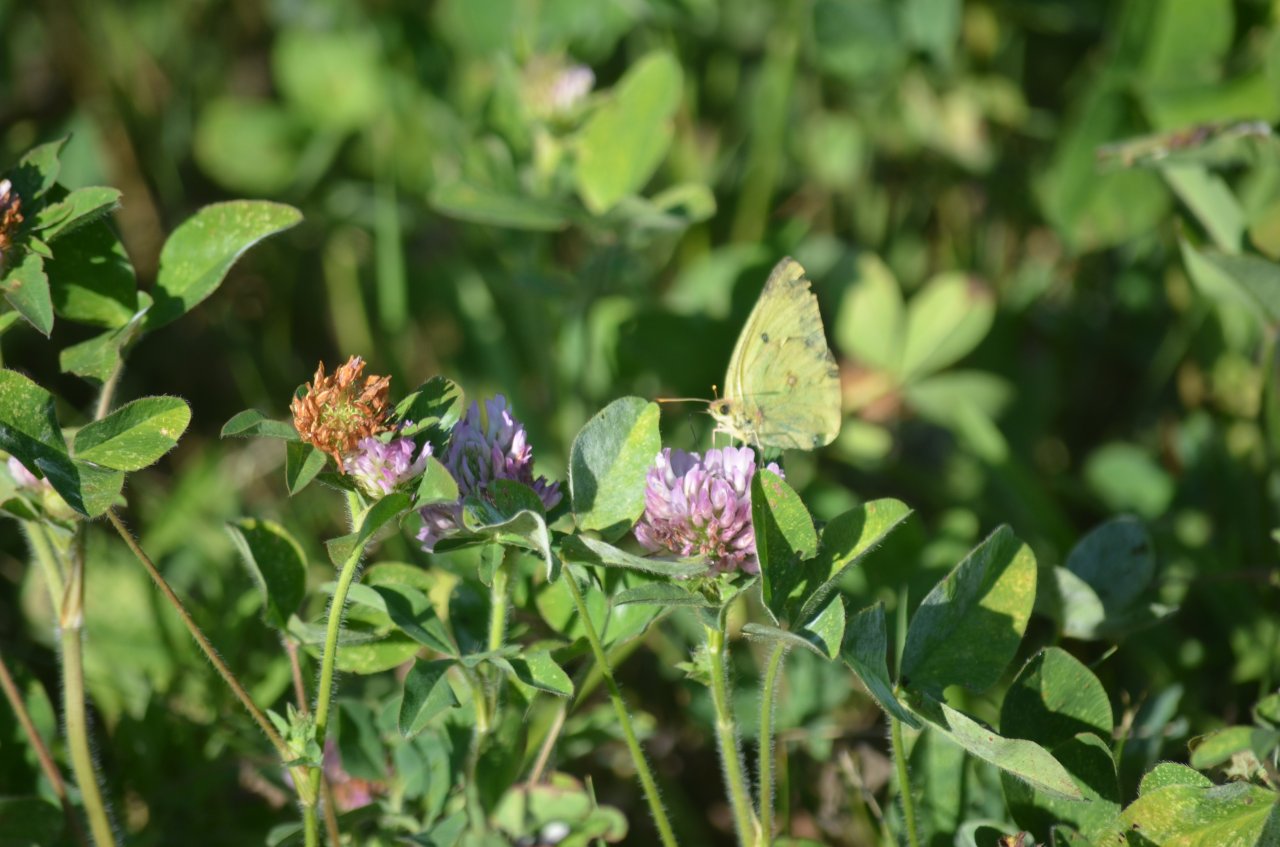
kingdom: Animalia
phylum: Arthropoda
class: Insecta
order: Lepidoptera
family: Pieridae
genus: Colias
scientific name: Colias philodice
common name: Clouded Sulphur
